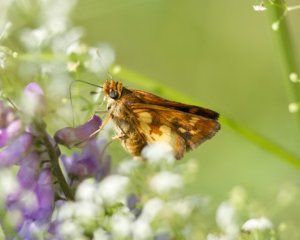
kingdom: Animalia
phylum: Arthropoda
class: Insecta
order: Lepidoptera
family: Hesperiidae
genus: Polites
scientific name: Polites coras
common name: Peck's Skipper
